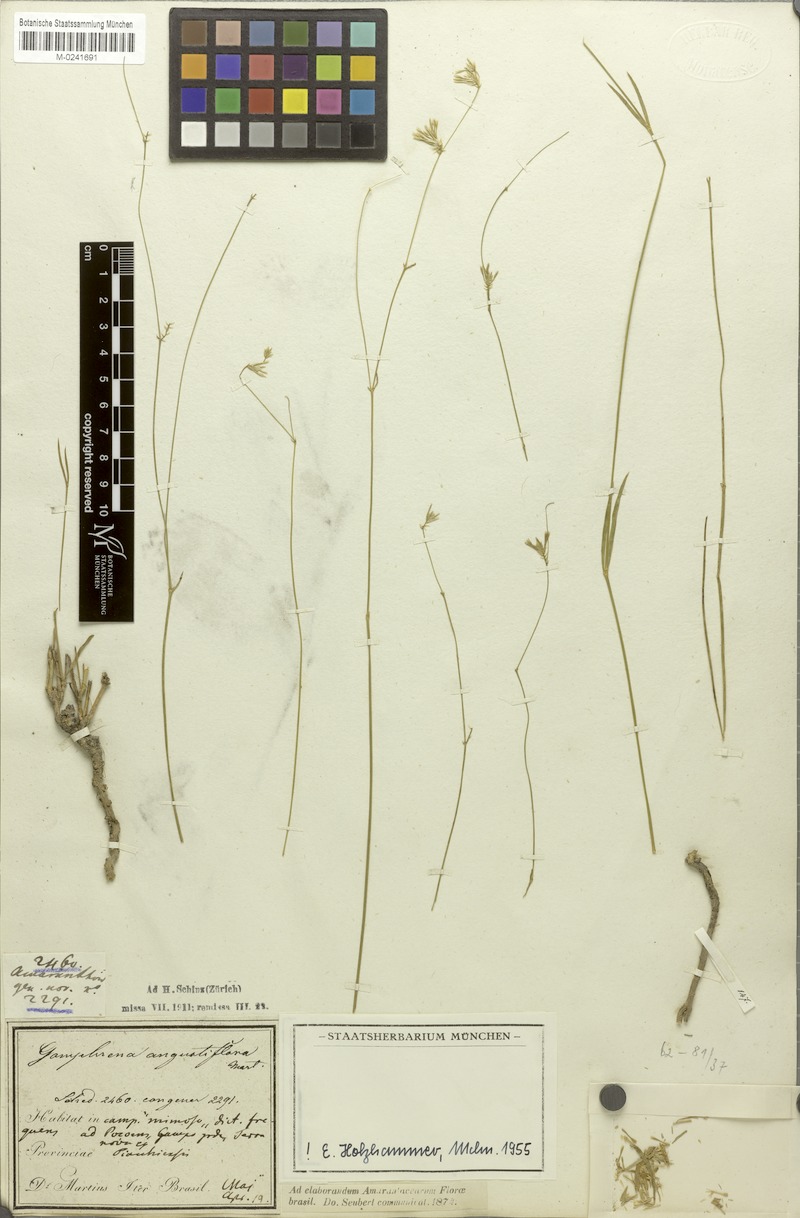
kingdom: Plantae
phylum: Tracheophyta
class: Magnoliopsida
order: Caryophyllales
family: Amaranthaceae
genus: Gomphrena
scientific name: Gomphrena angustiflora
